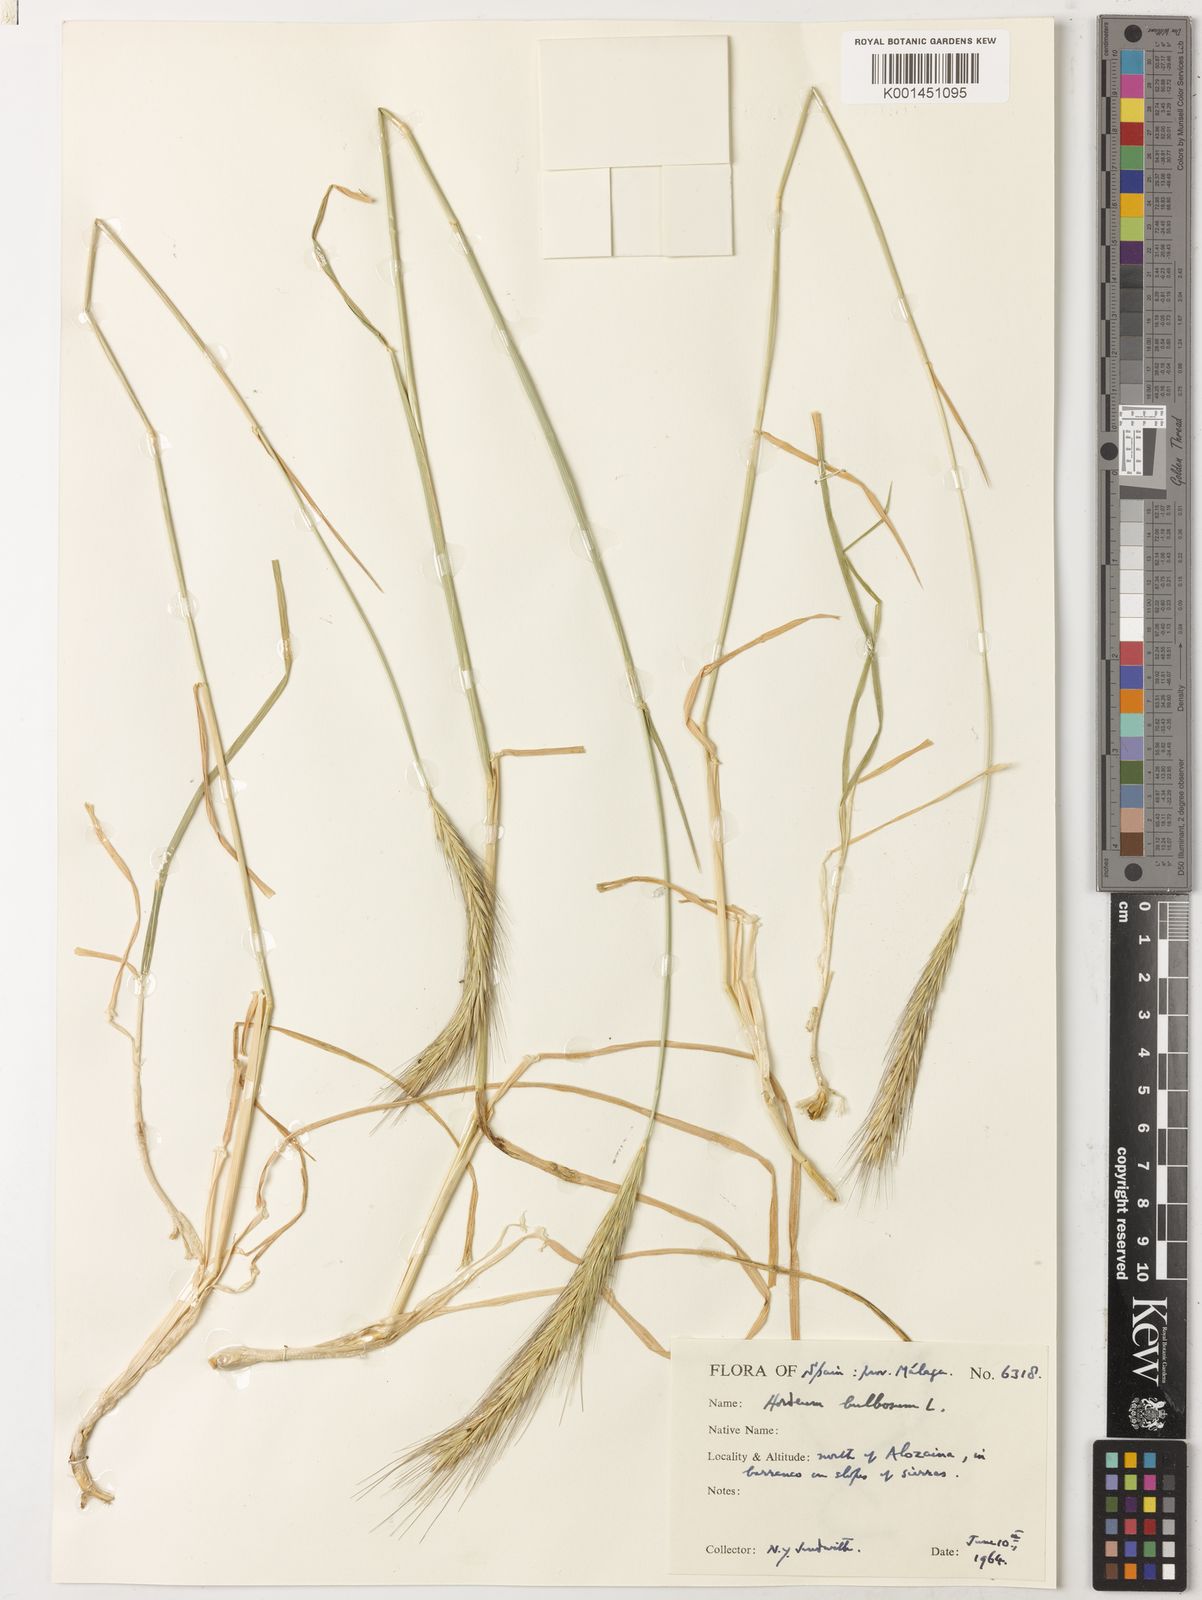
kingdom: Plantae
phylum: Tracheophyta
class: Liliopsida
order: Poales
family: Poaceae
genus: Hordeum
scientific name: Hordeum bulbosum
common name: Bulbous barley
